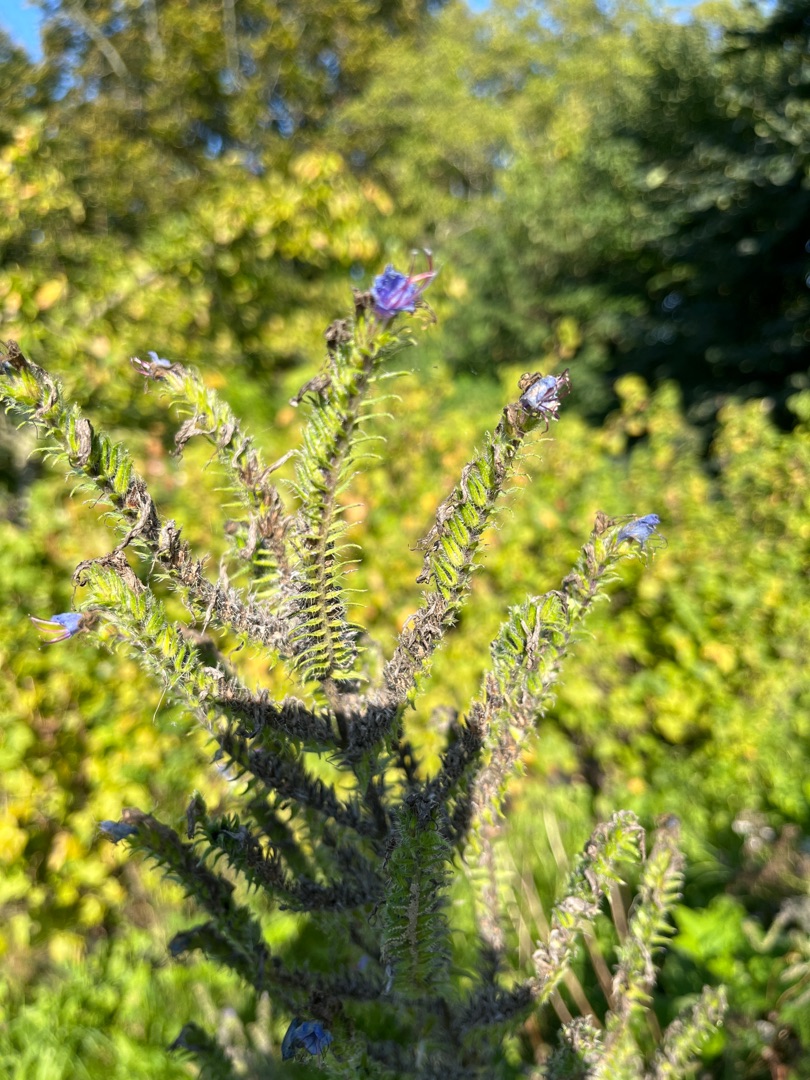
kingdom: Plantae
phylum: Tracheophyta
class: Magnoliopsida
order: Boraginales
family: Boraginaceae
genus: Echium
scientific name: Echium vulgare
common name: Slangehoved
